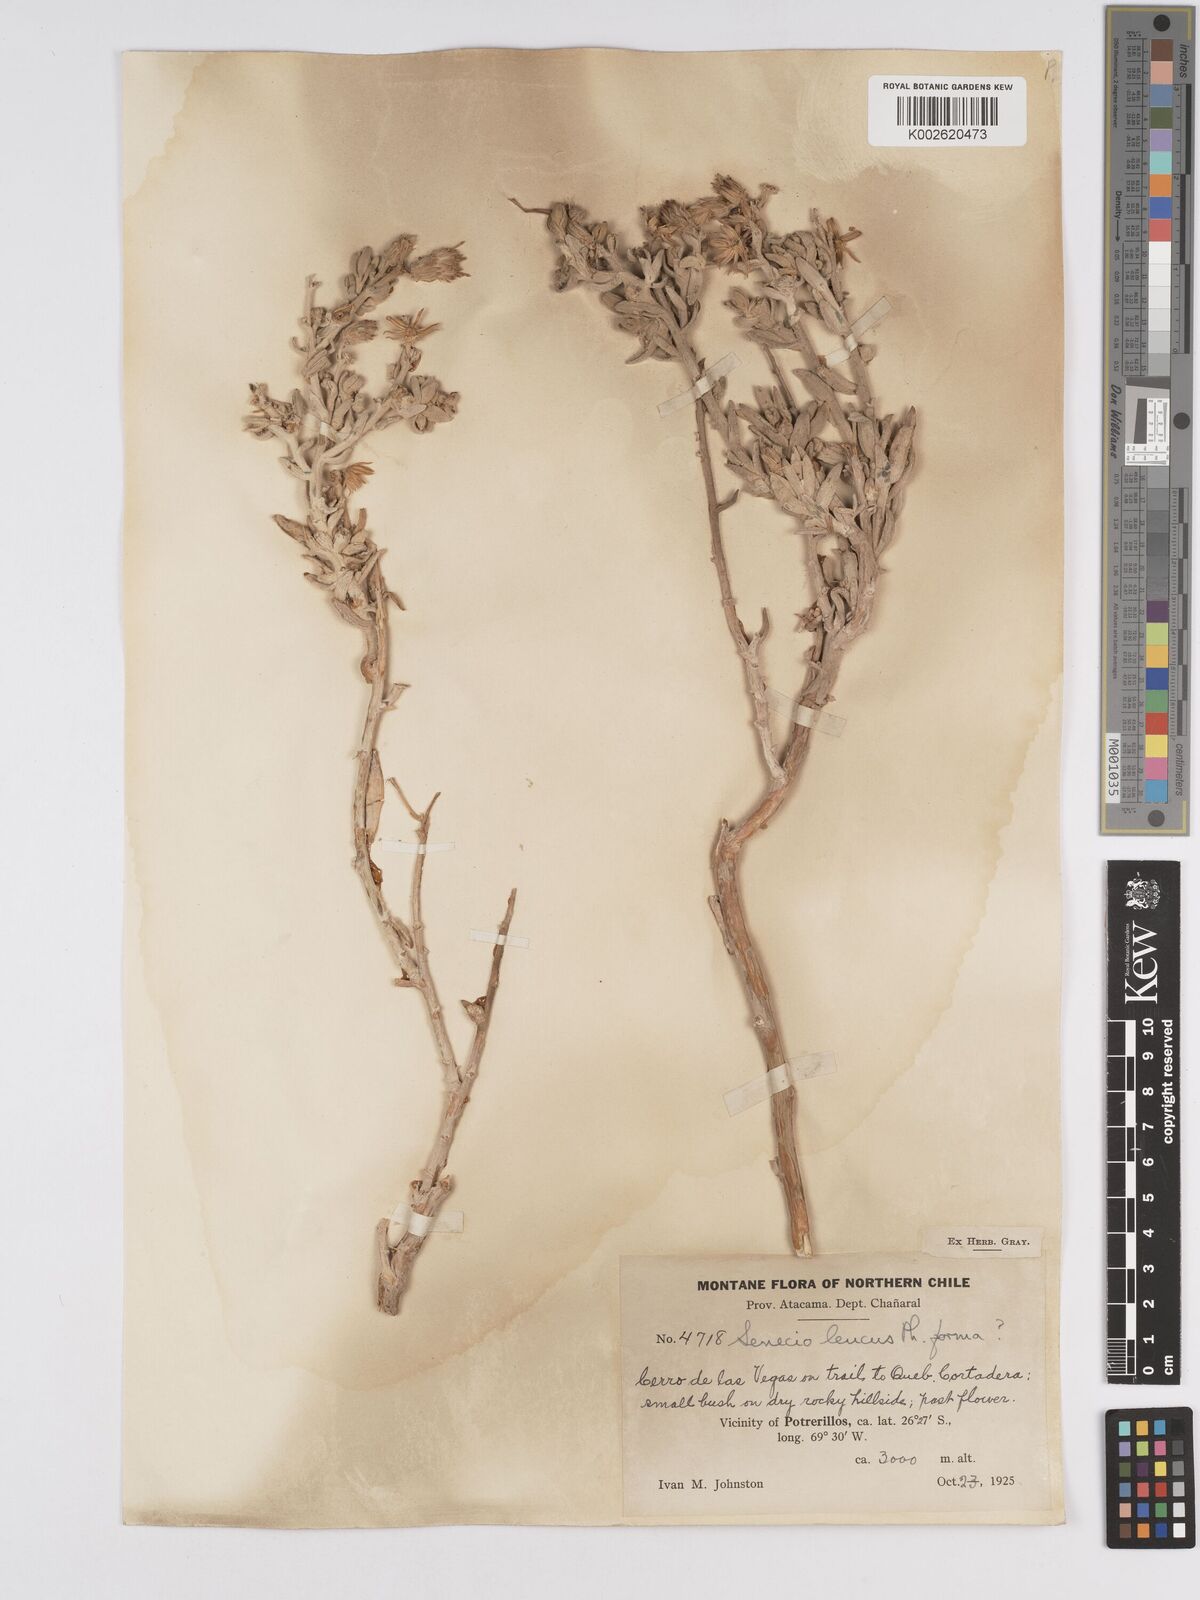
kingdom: Plantae
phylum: Tracheophyta
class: Magnoliopsida
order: Asterales
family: Asteraceae
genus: Senecio
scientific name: Senecio leucus
